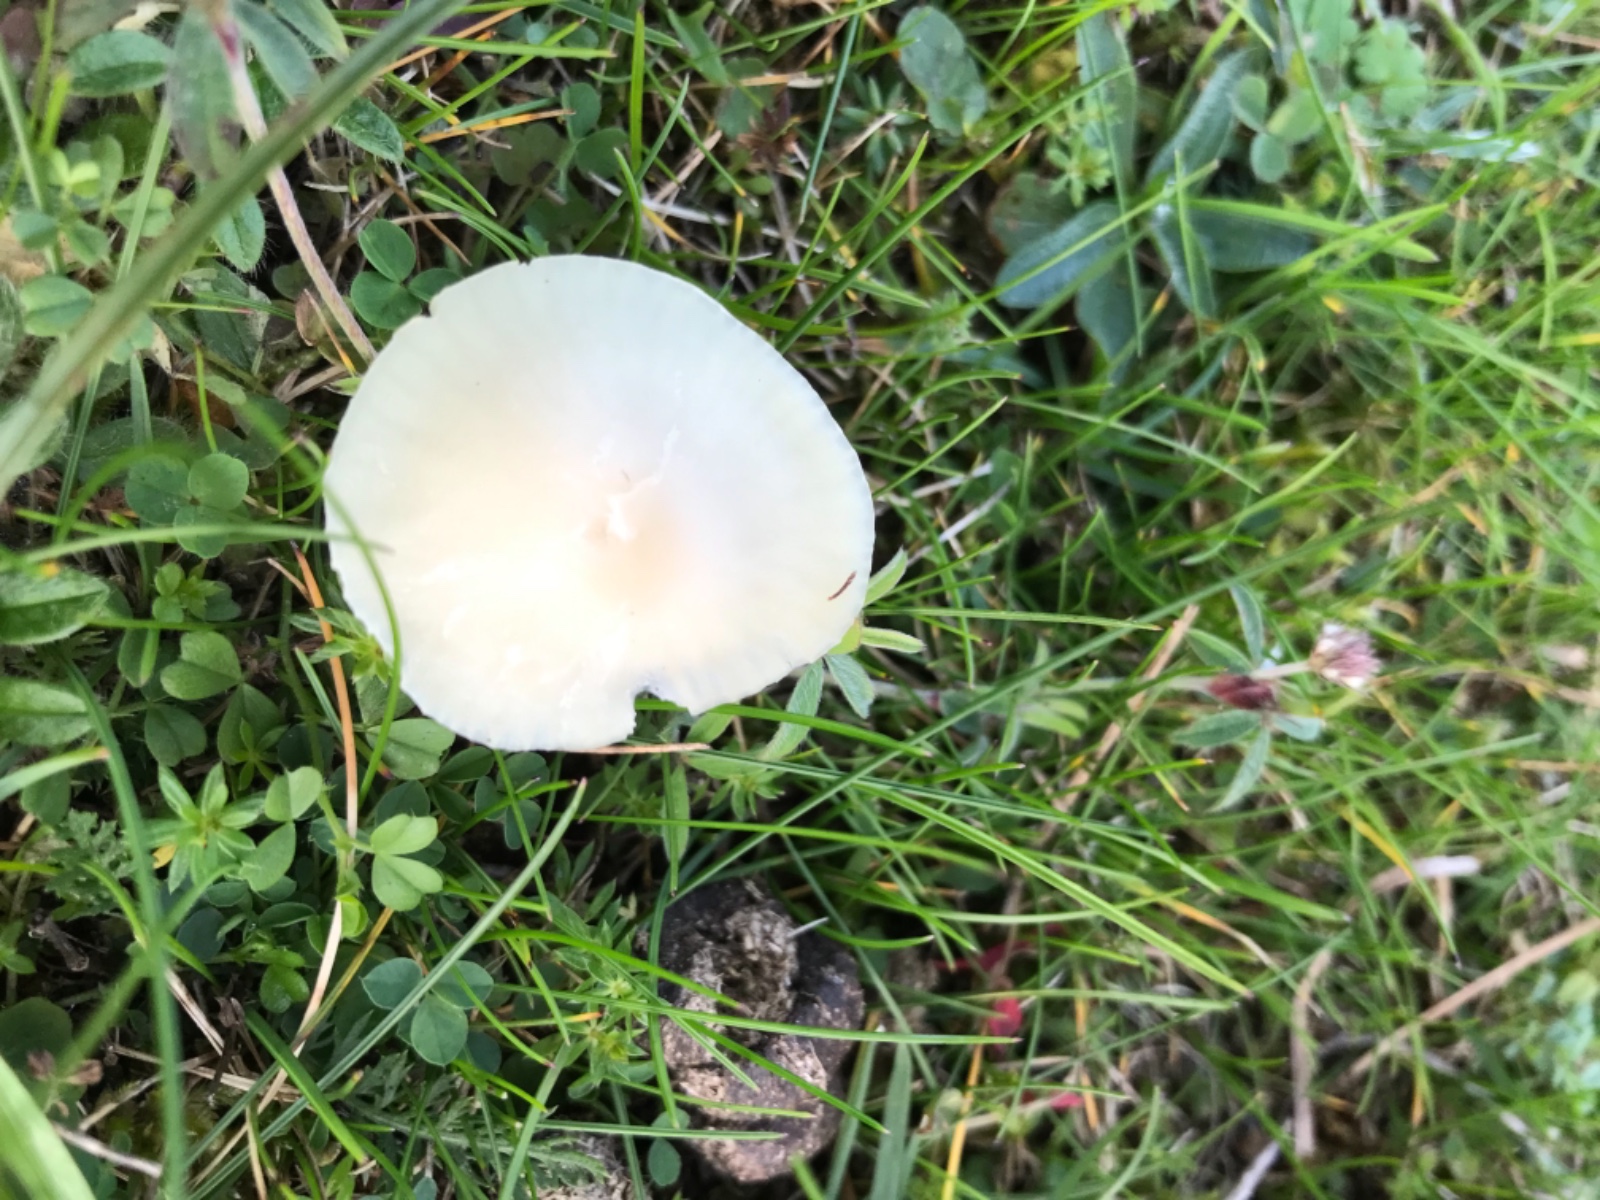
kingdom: Fungi
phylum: Basidiomycota
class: Agaricomycetes
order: Agaricales
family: Hygrophoraceae
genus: Cuphophyllus
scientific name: Cuphophyllus virgineus
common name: snehvid vokshat
